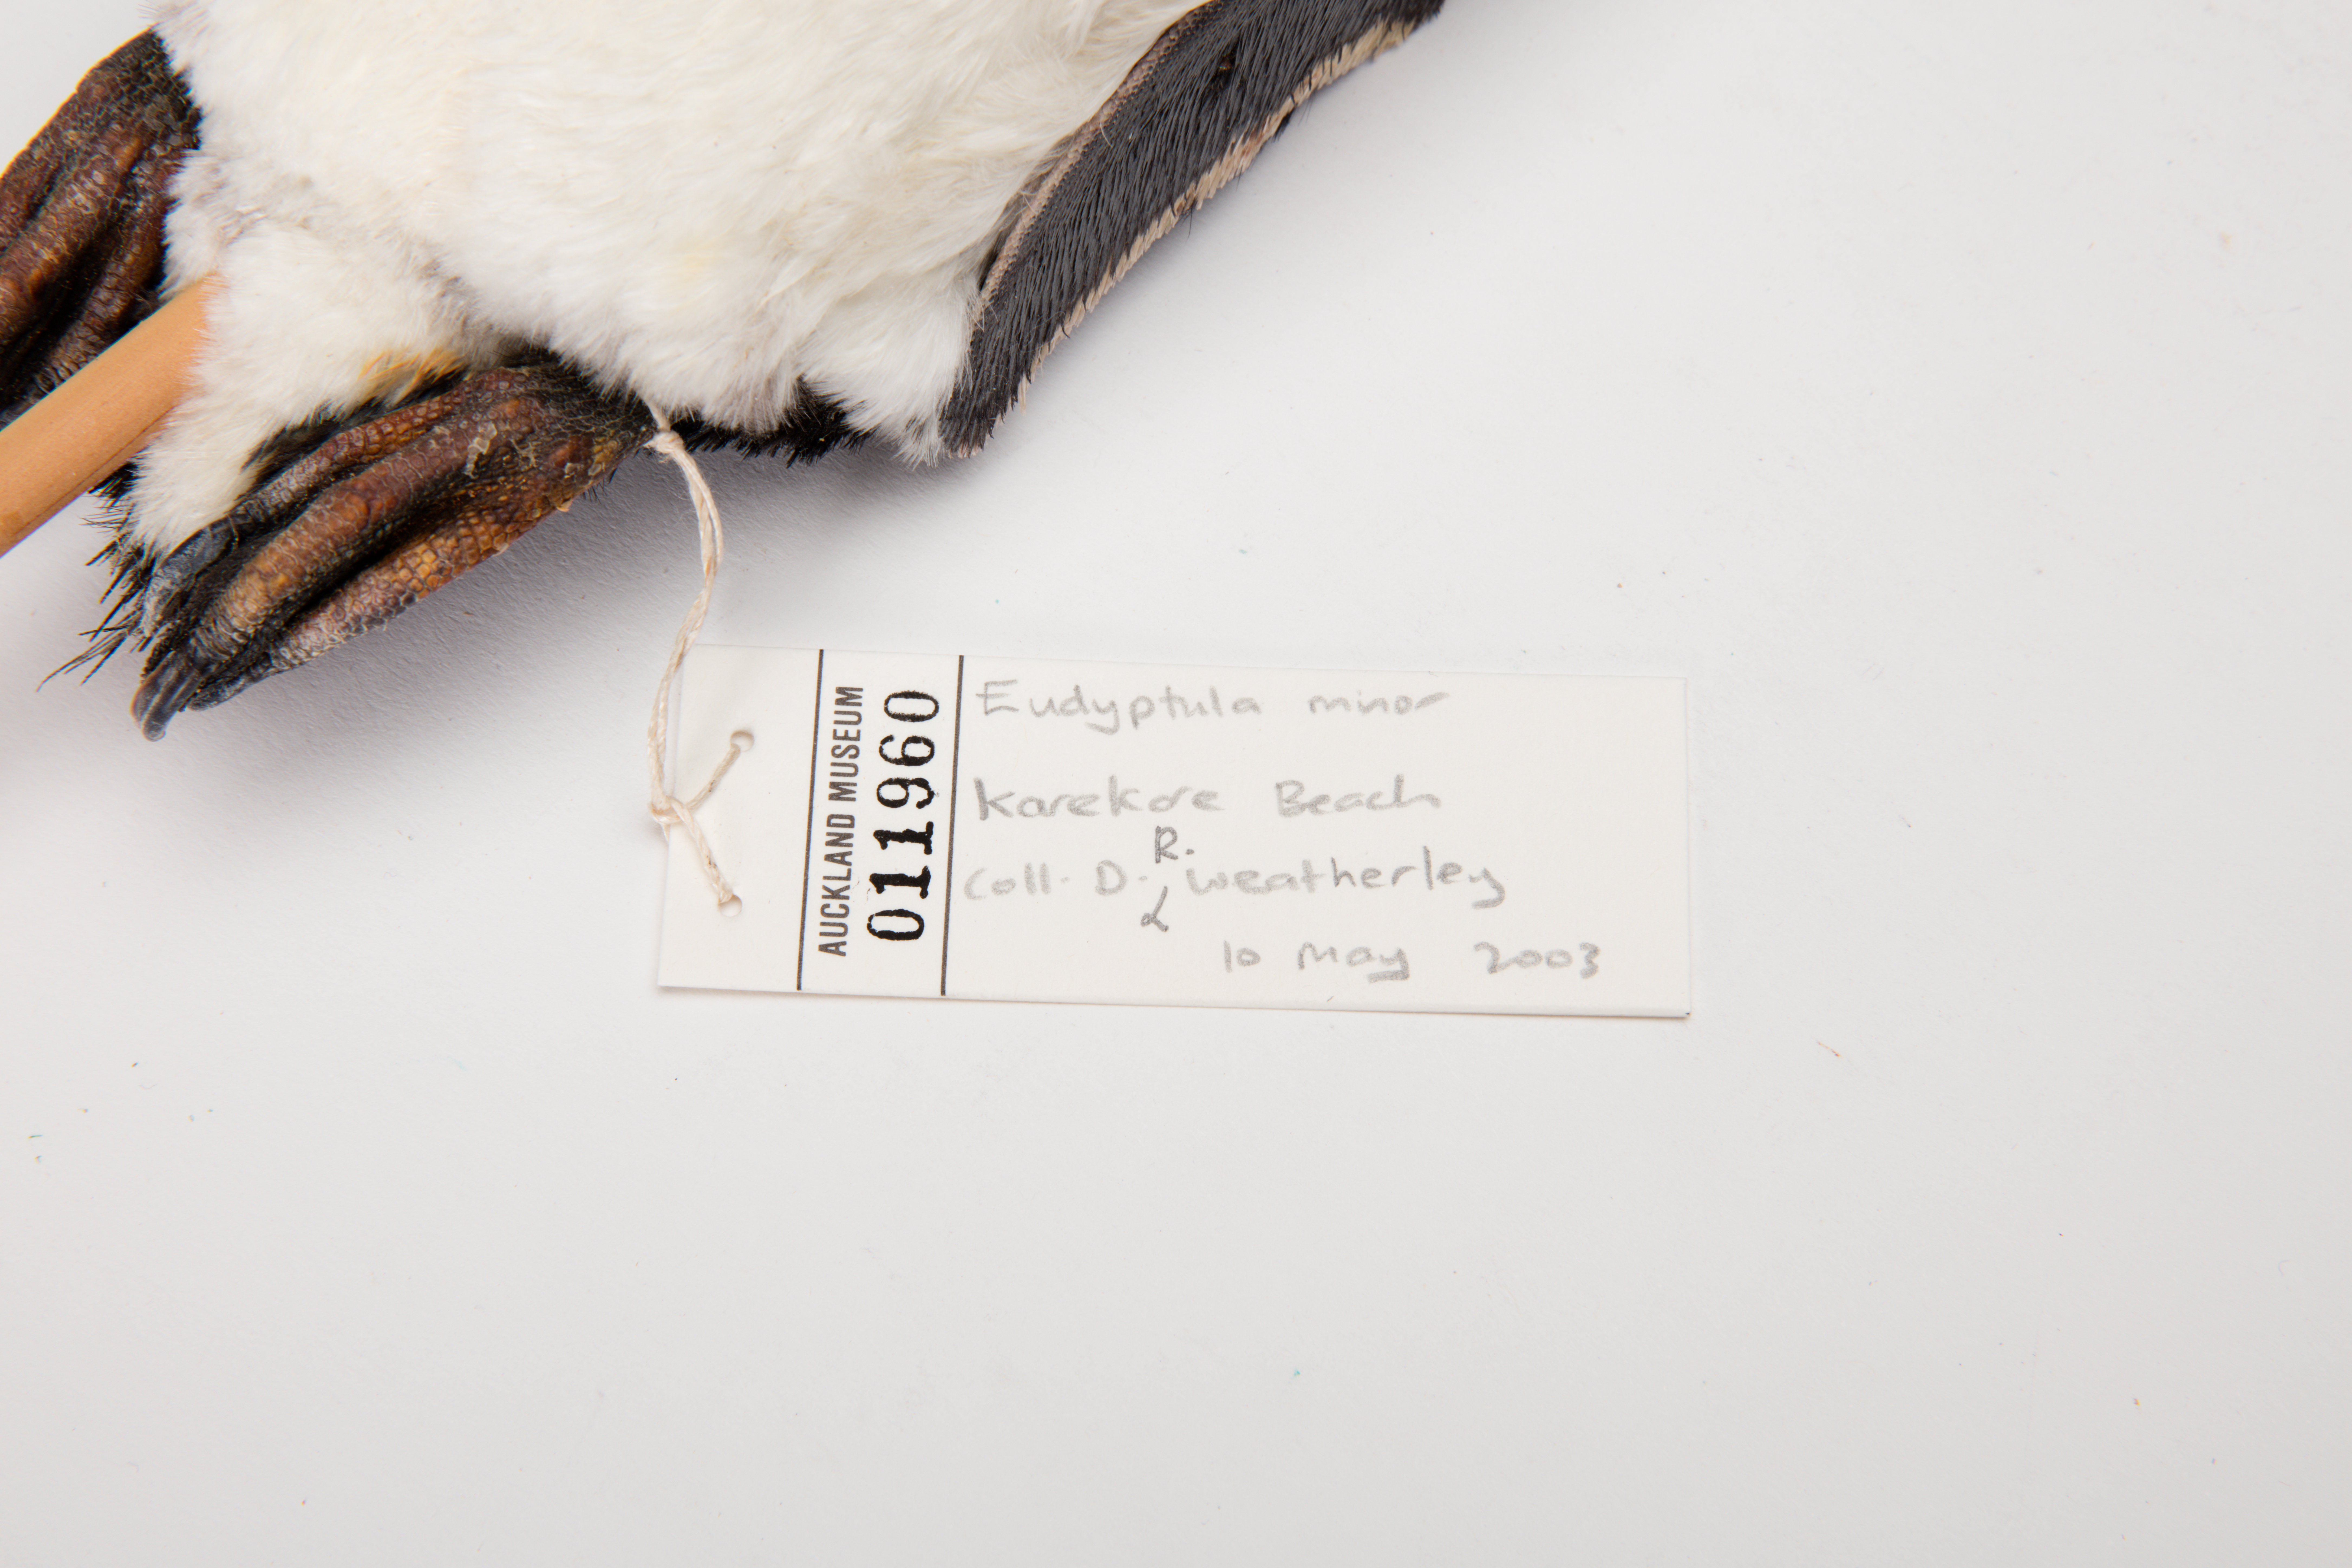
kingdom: Animalia
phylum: Chordata
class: Aves
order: Sphenisciformes
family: Spheniscidae
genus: Eudyptula
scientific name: Eudyptula minor
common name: Little penguin
